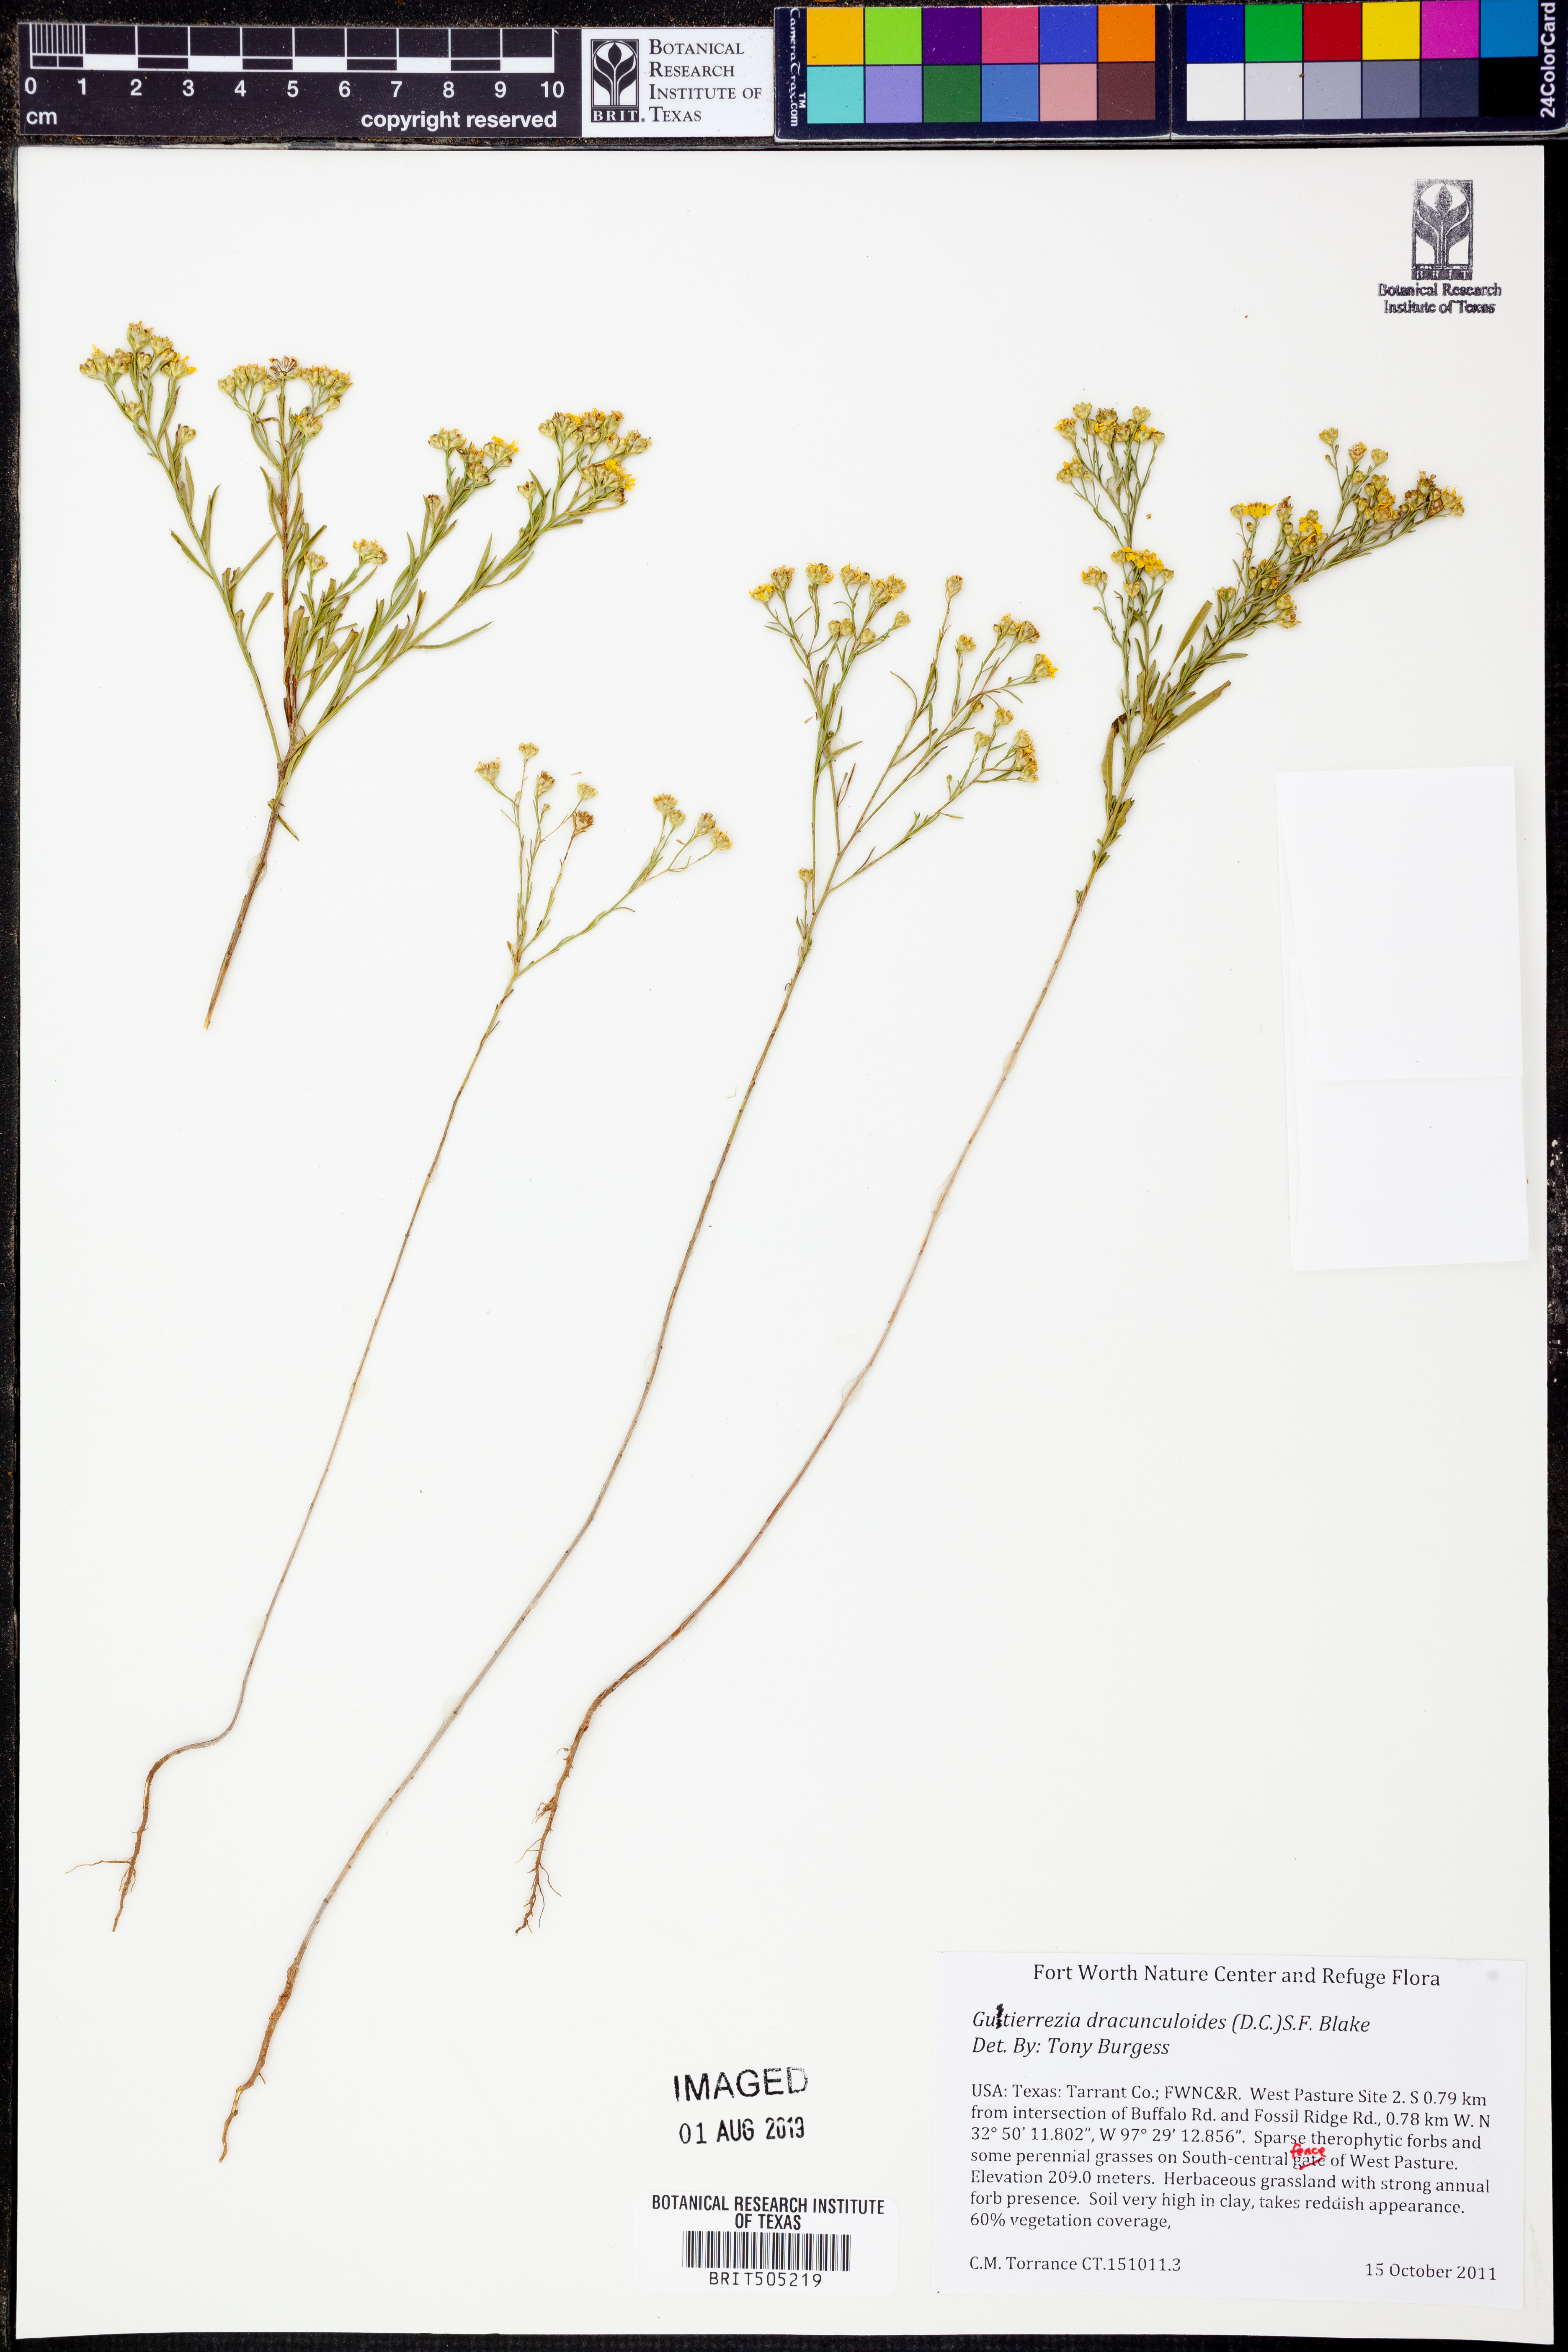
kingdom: Plantae
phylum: Tracheophyta
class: Magnoliopsida
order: Asterales
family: Asteraceae
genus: Amphiachyris
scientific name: Amphiachyris dracunculoides
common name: Broomweed
